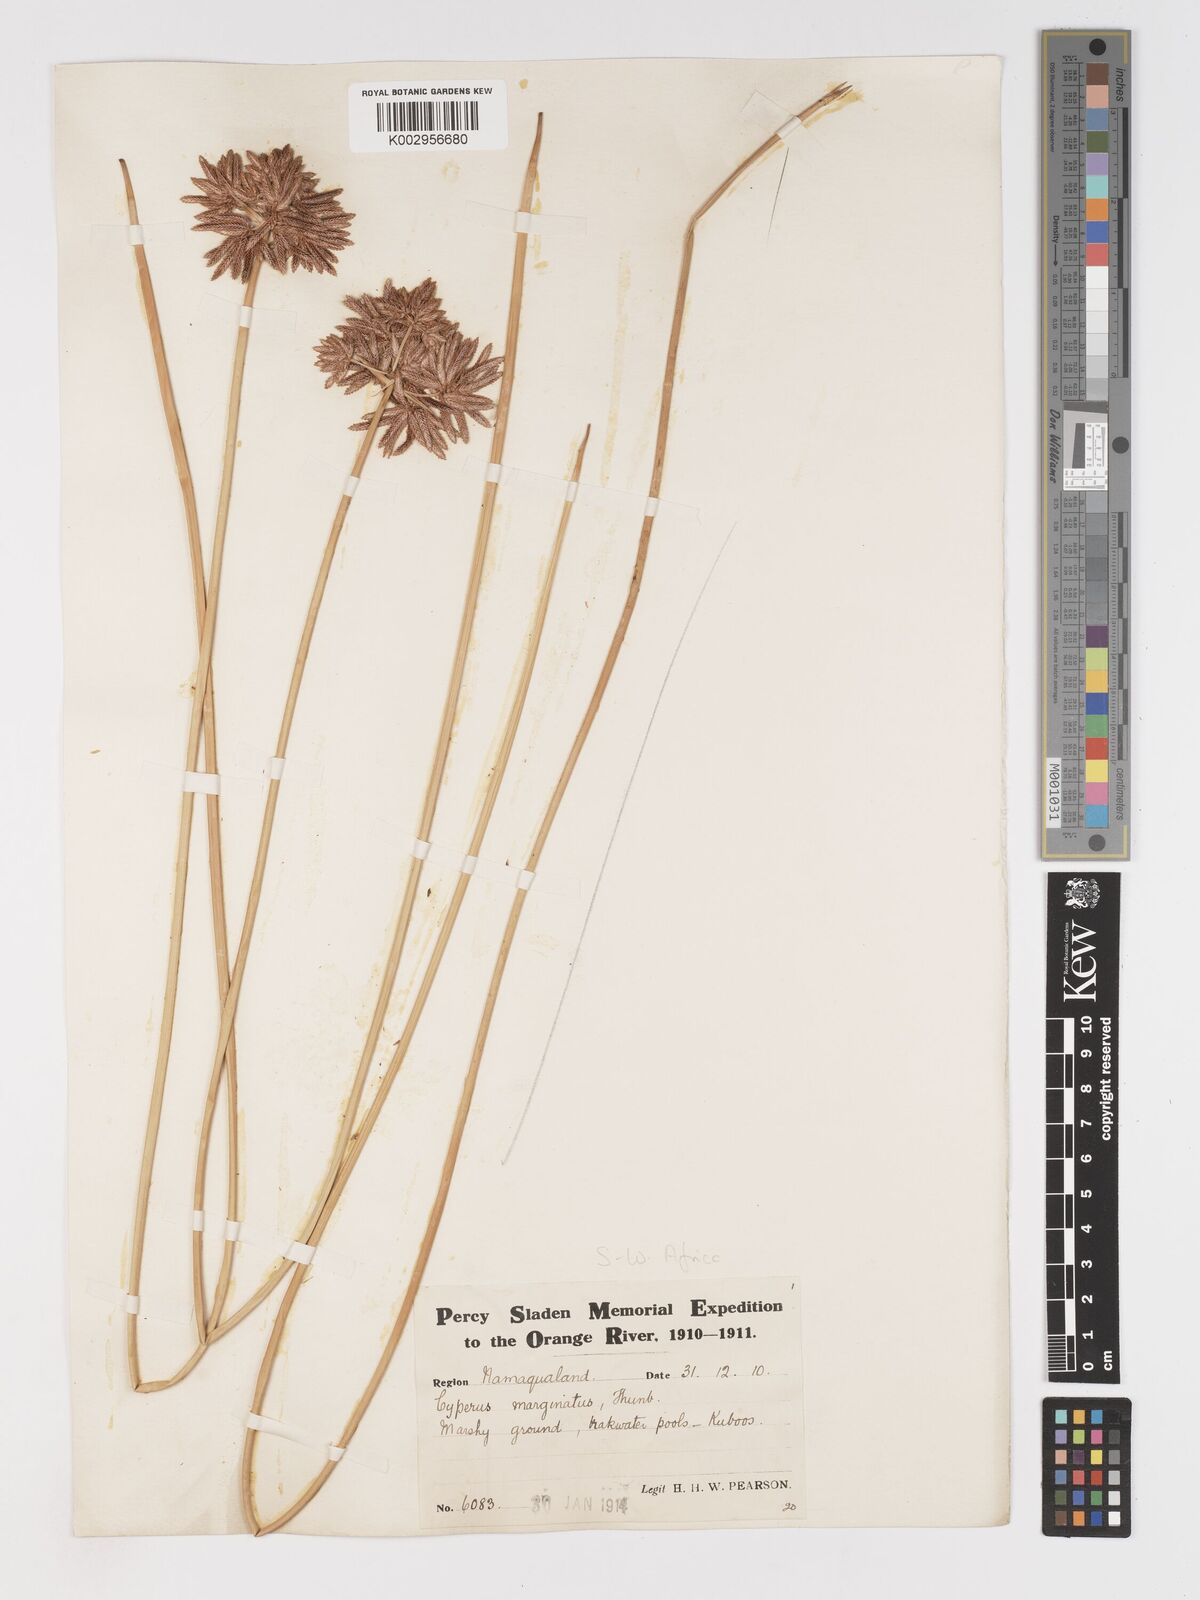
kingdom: Plantae
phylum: Tracheophyta
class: Liliopsida
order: Poales
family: Cyperaceae
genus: Cyperus
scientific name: Cyperus marginatus
